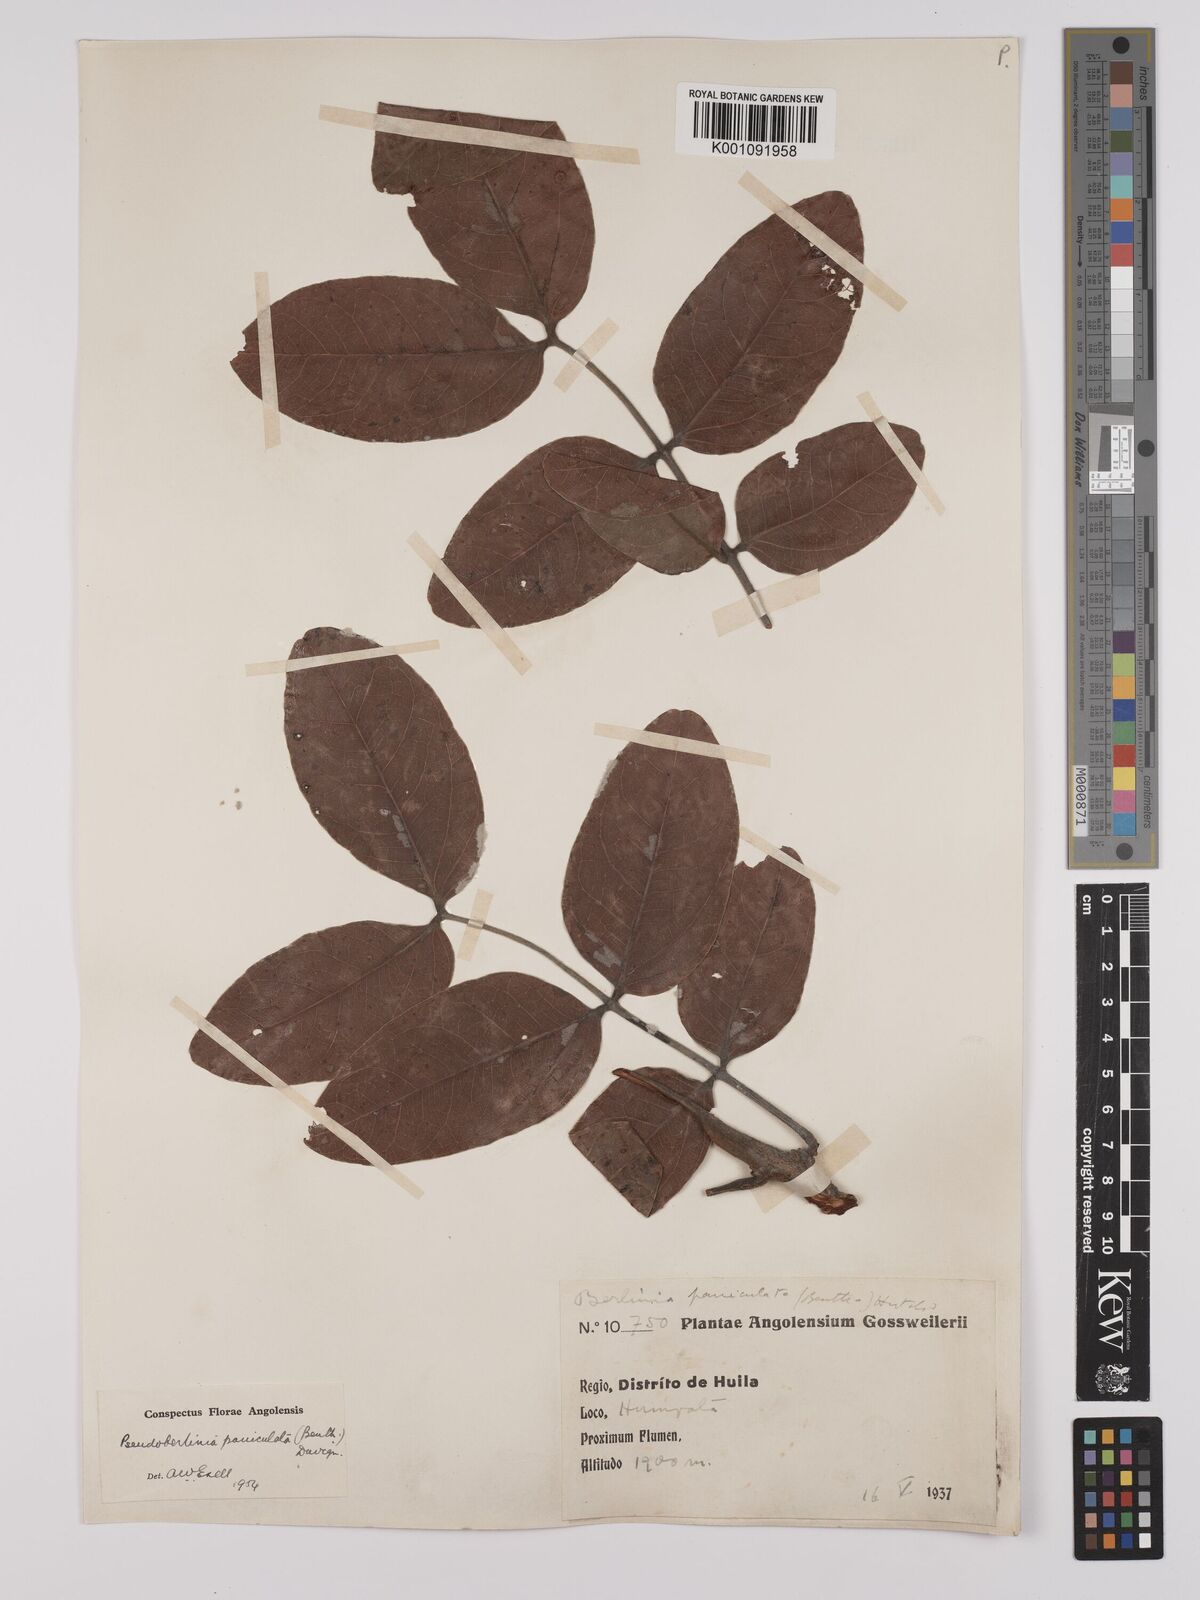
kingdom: Plantae
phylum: Tracheophyta
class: Magnoliopsida
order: Fabales
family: Fabaceae
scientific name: Fabaceae
